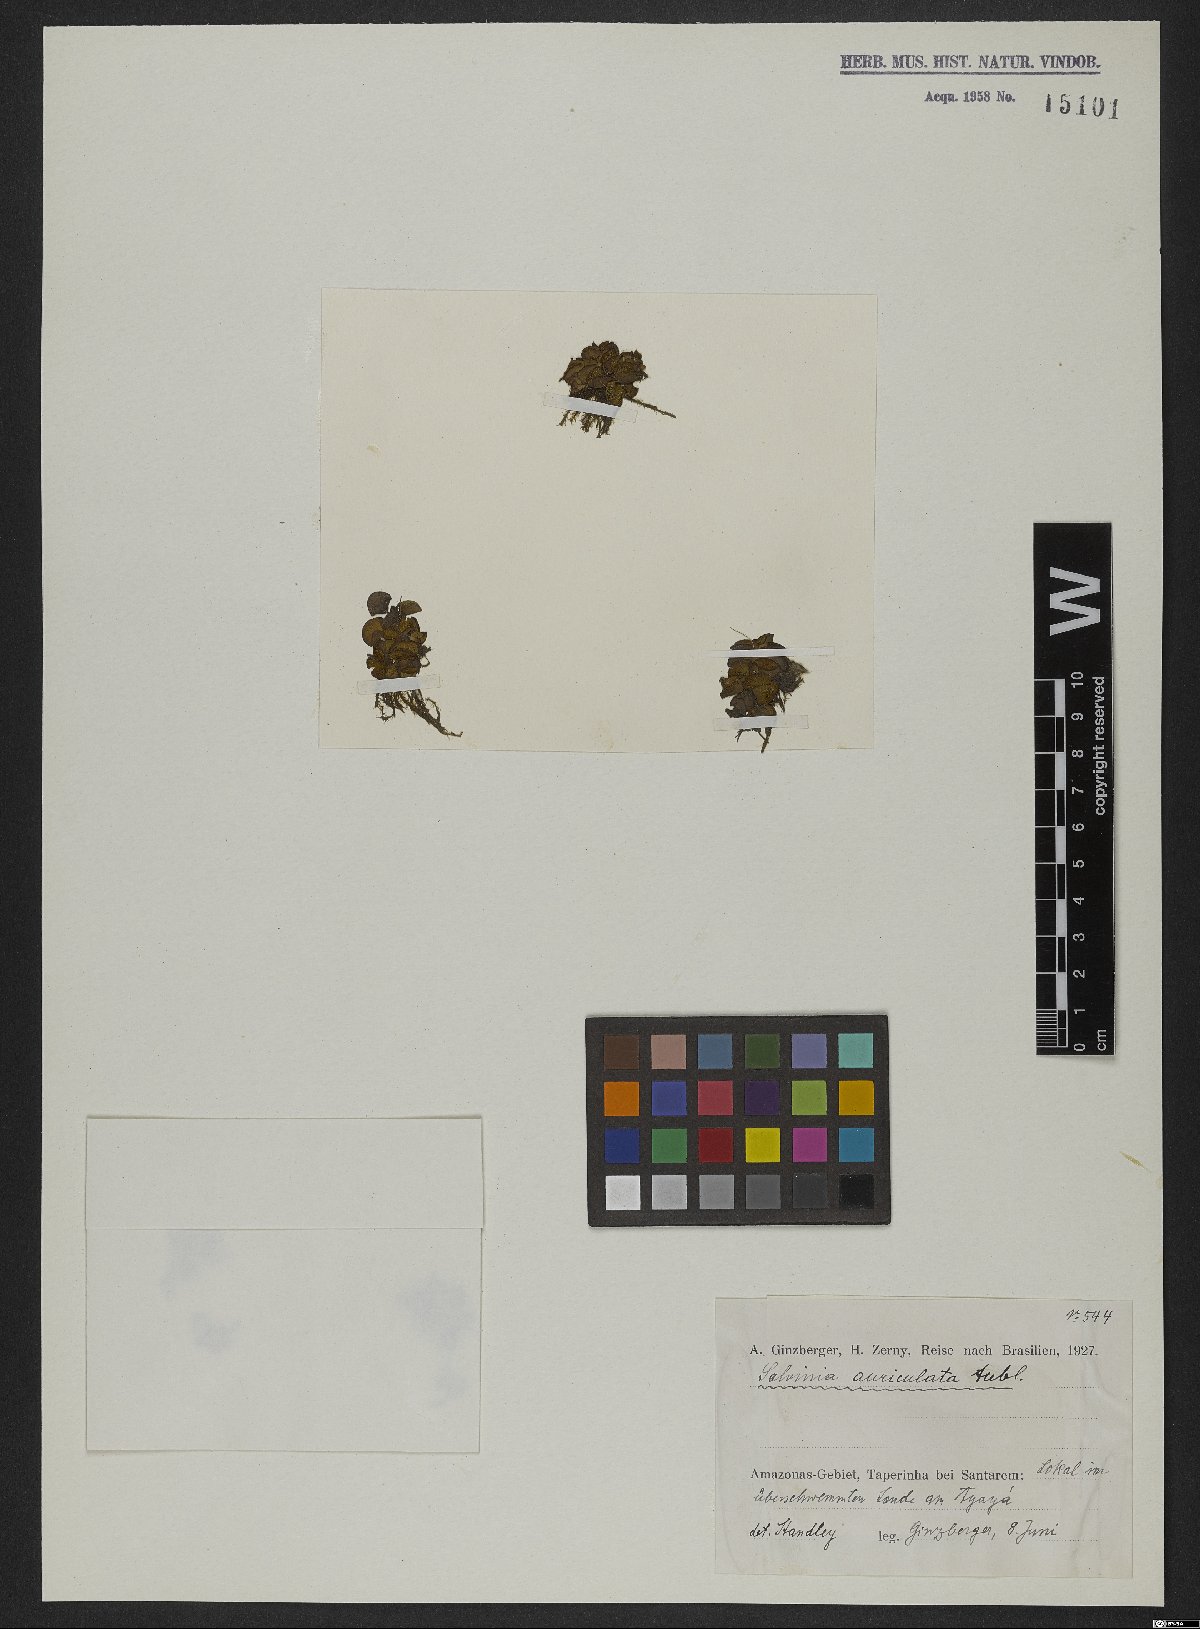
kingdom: Plantae
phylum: Tracheophyta
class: Polypodiopsida
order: Salviniales
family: Salviniaceae
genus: Salvinia
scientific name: Salvinia auriculata
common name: African payal
